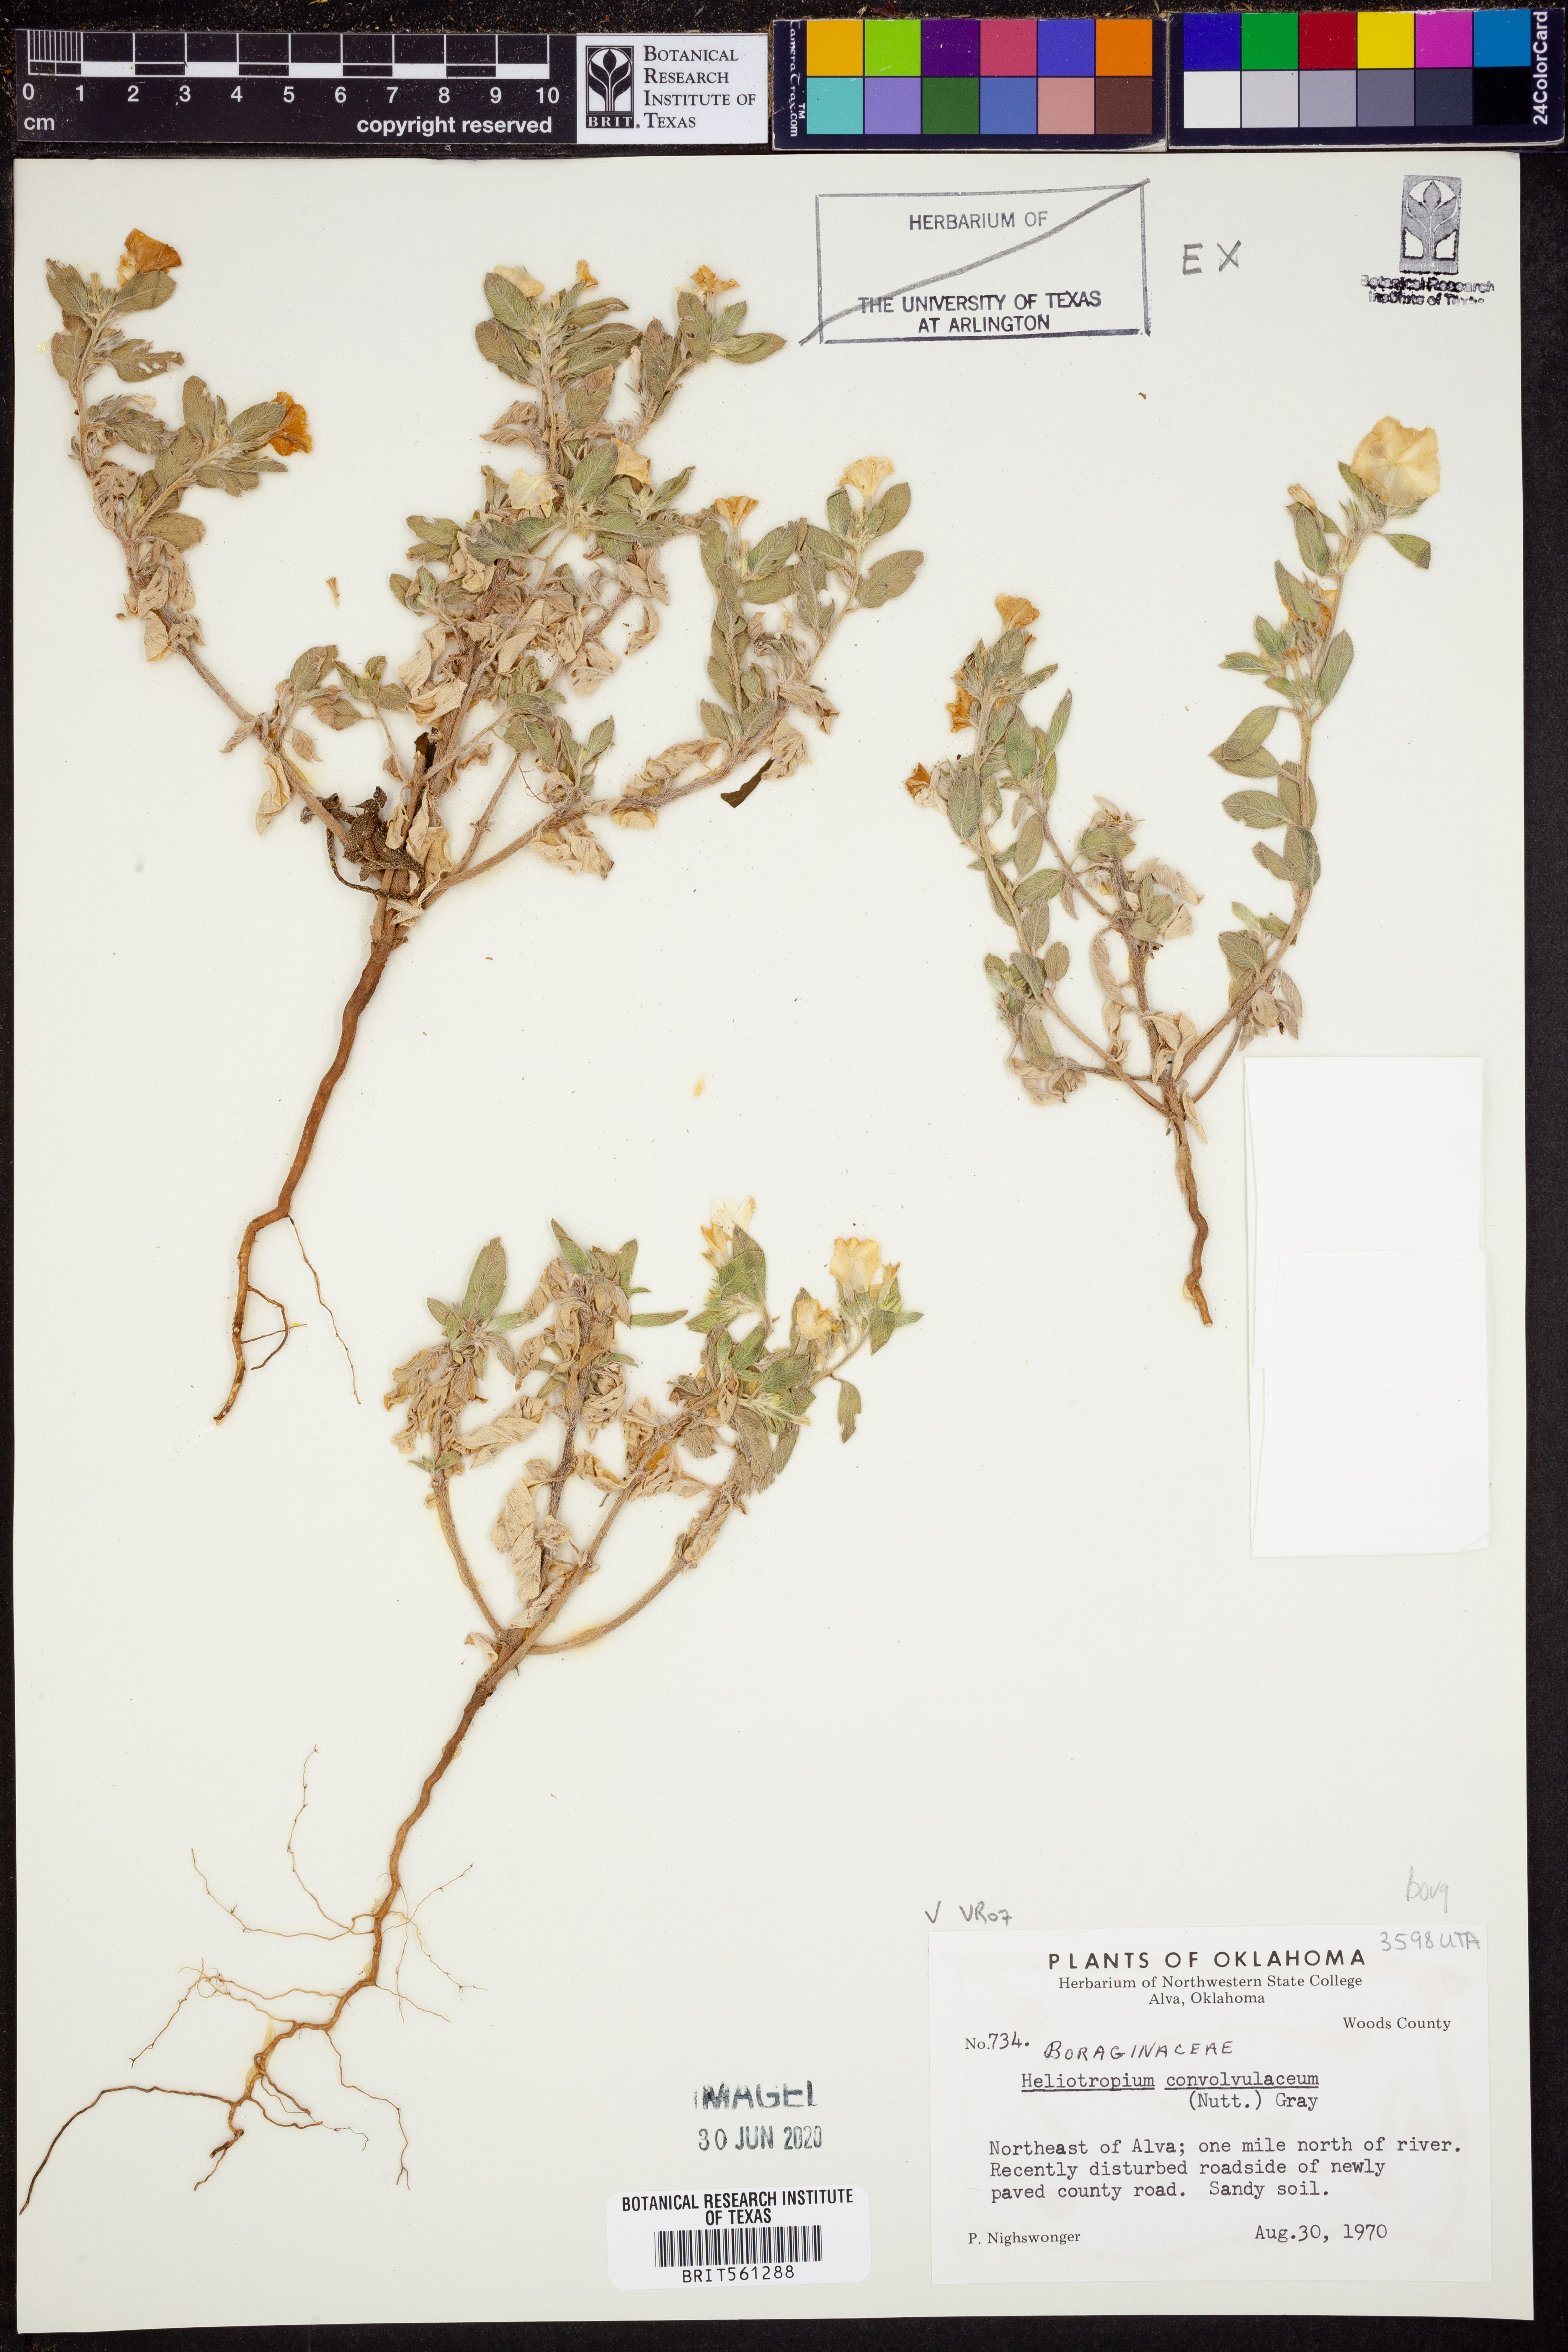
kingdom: Plantae
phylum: Tracheophyta
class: Magnoliopsida
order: Boraginales
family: Heliotropiaceae
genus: Euploca
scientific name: Euploca convolvulacea
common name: Bindweed heliotrope
